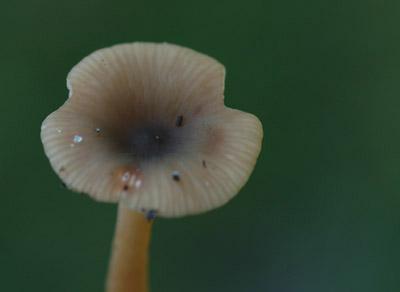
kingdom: Fungi
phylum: Basidiomycota
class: Agaricomycetes
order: Russulales
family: Russulaceae
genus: Lactarius
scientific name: Lactarius cyathuliformis
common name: mørkøjet mælkehat
